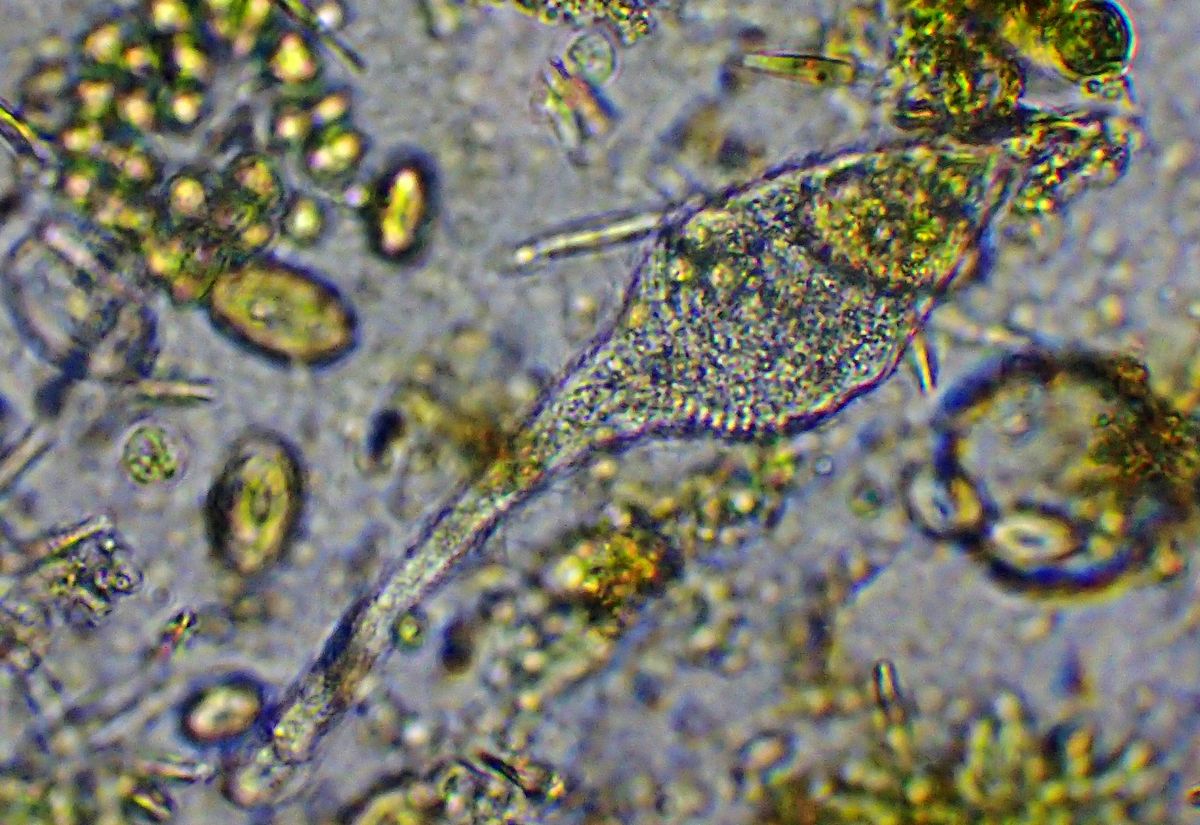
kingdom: Chromista
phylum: Ciliophora
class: Gymnostomatea
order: Spathidiida
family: Lacrymariidae
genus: Lacrymaria
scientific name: Lacrymaria olor
